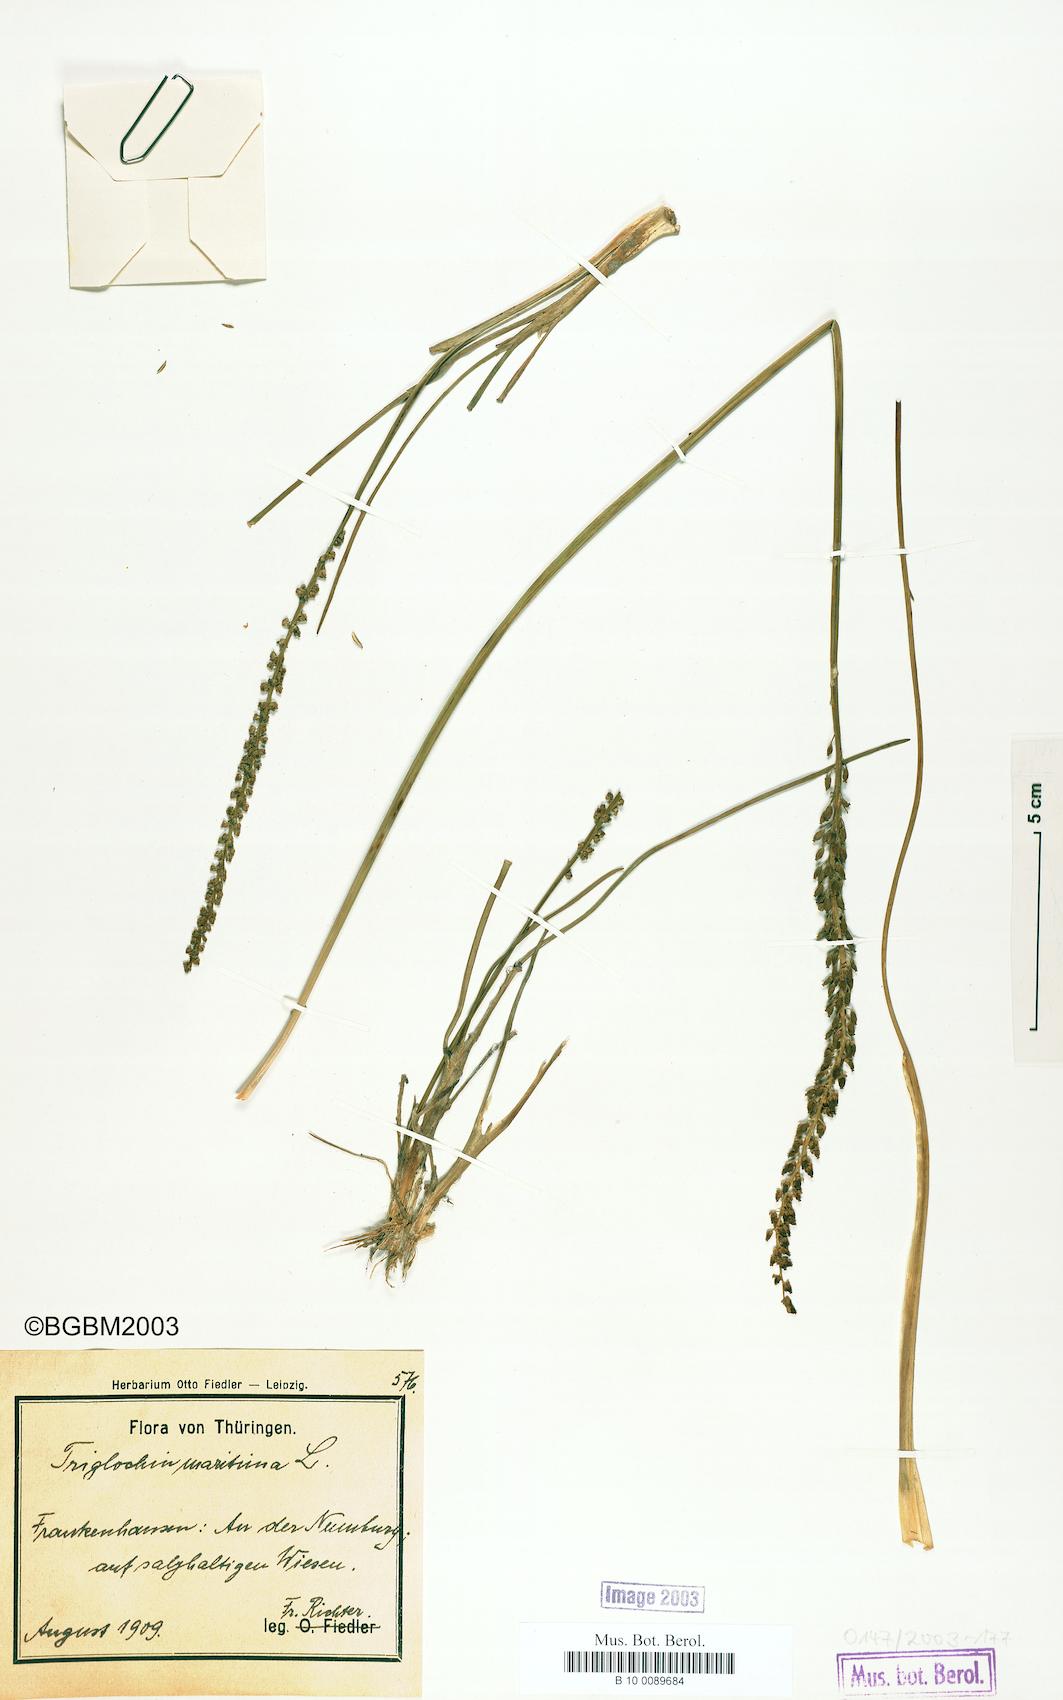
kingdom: Plantae
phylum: Tracheophyta
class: Liliopsida
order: Alismatales
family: Juncaginaceae
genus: Triglochin
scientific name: Triglochin maritima
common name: Sea arrowgrass
